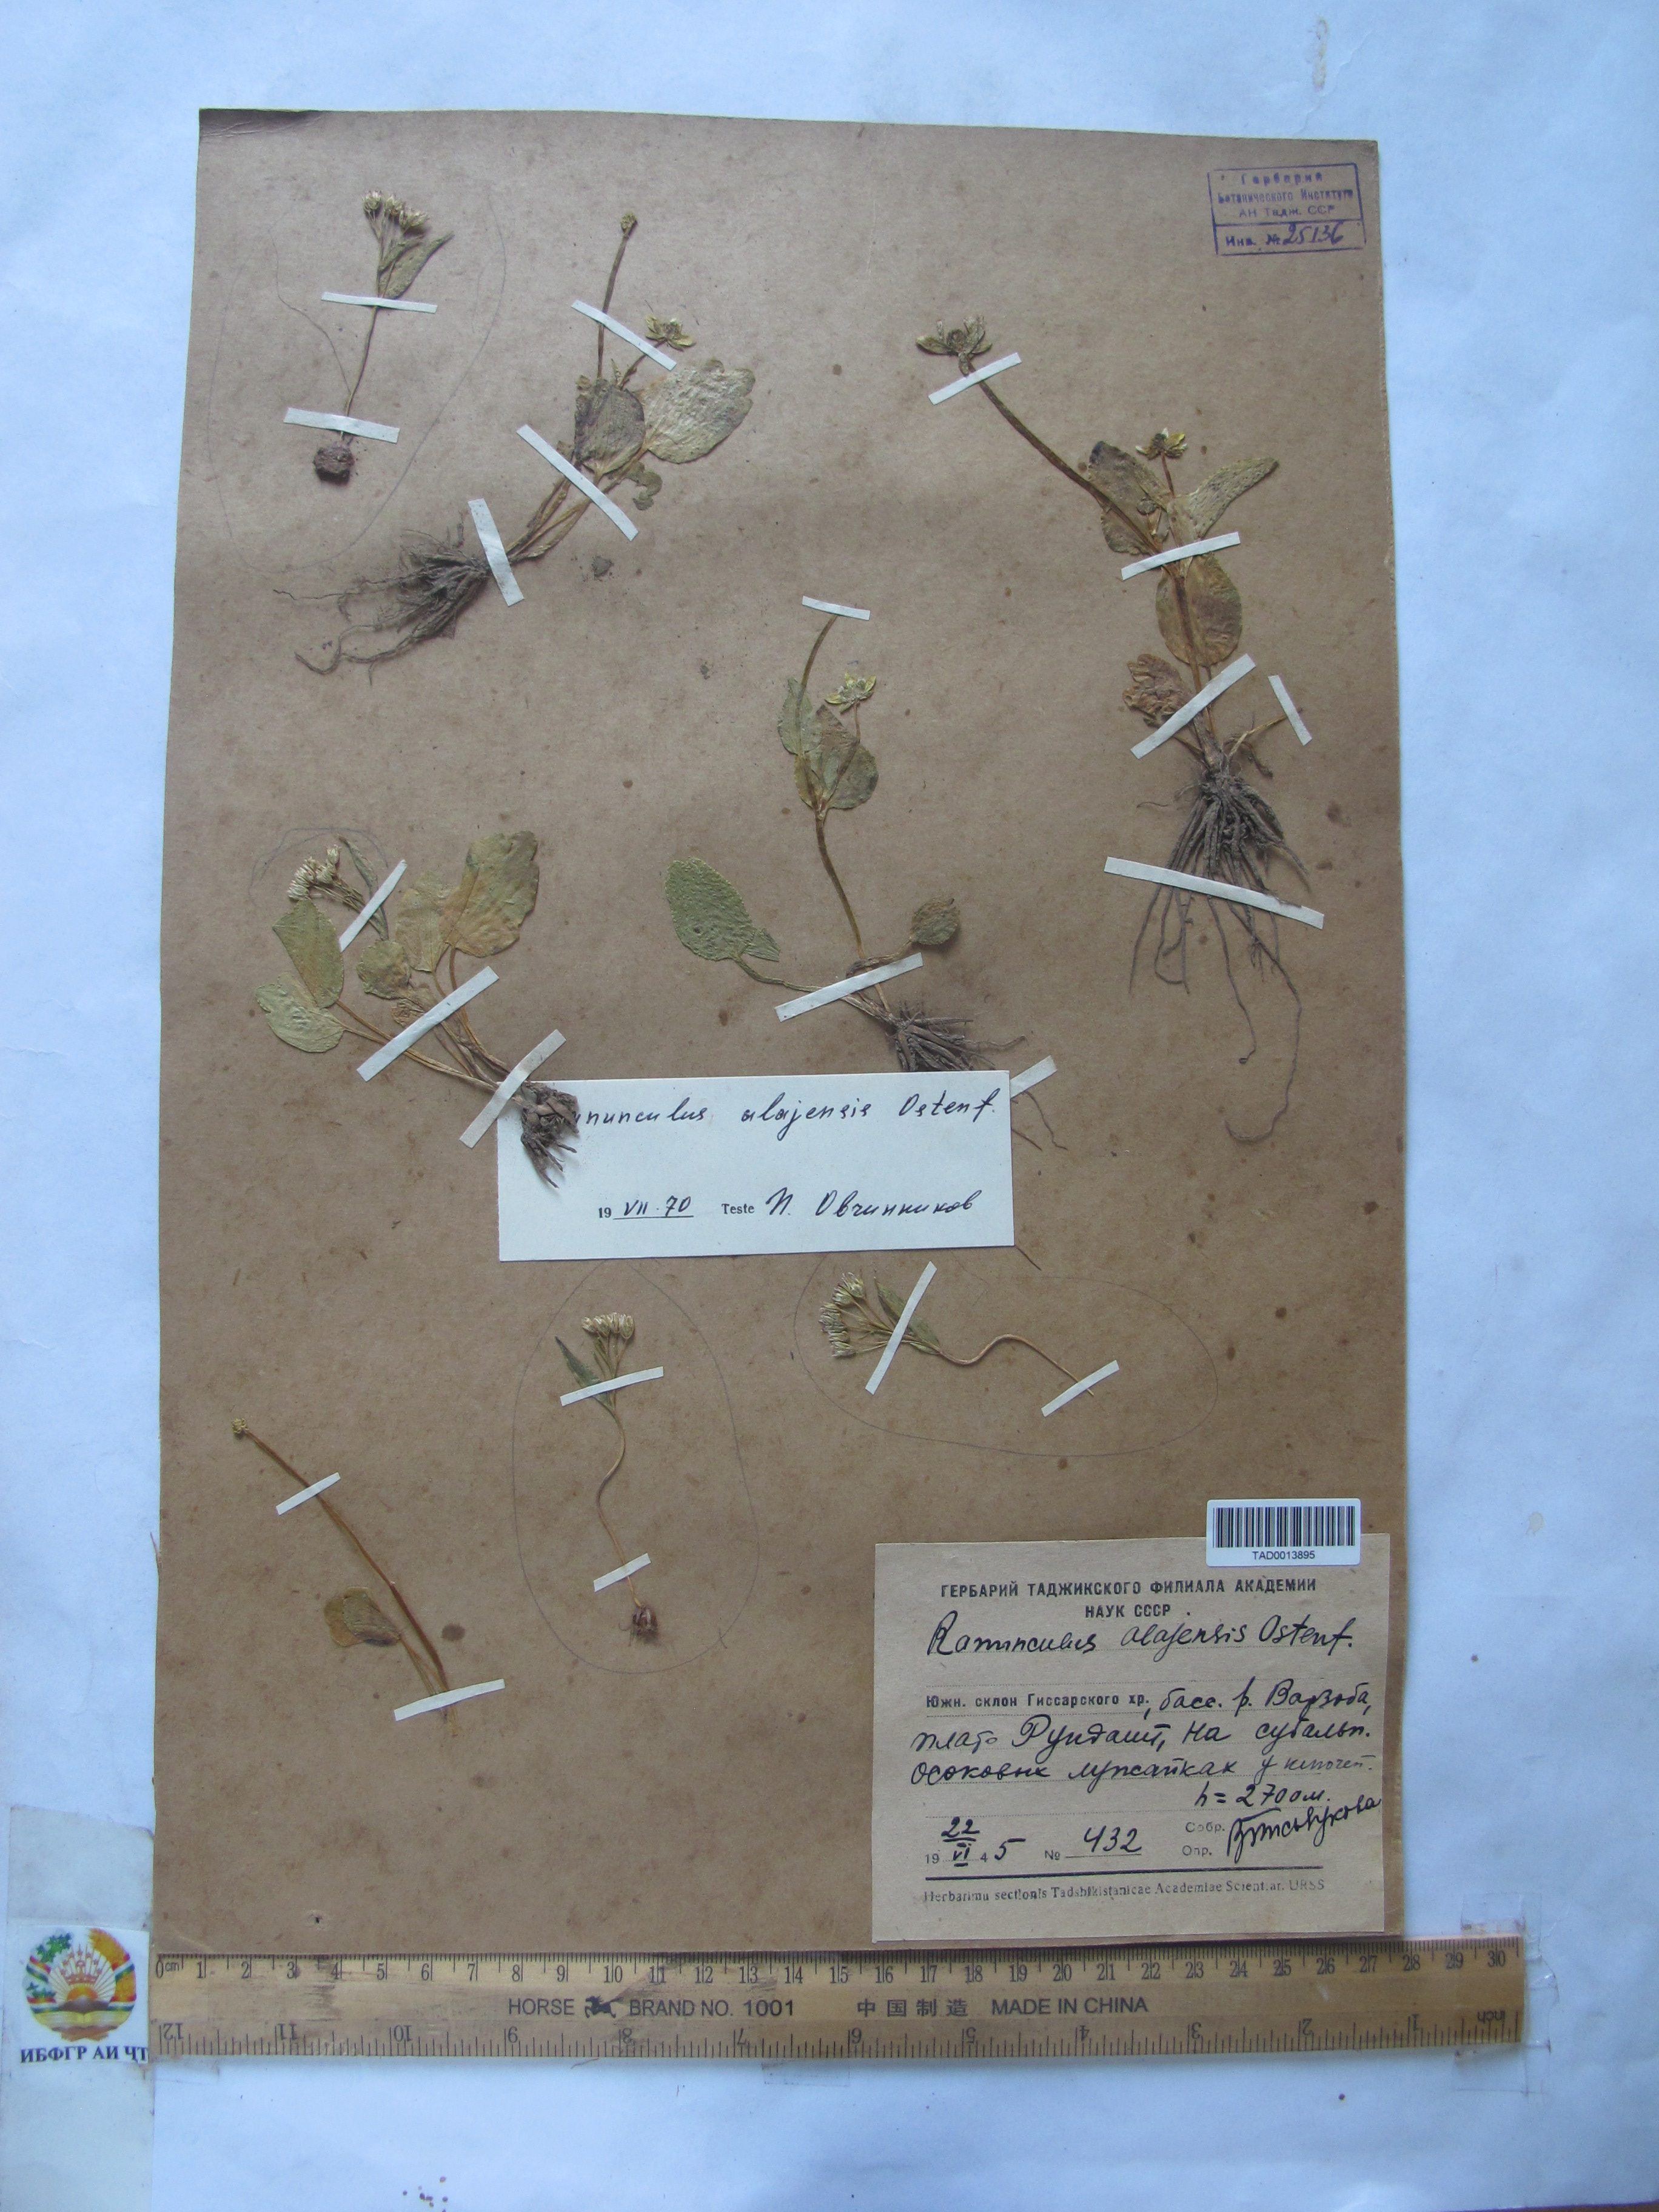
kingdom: Plantae
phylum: Tracheophyta
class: Magnoliopsida
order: Ranunculales
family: Ranunculaceae
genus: Ranunculus
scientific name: Ranunculus alaiensis
